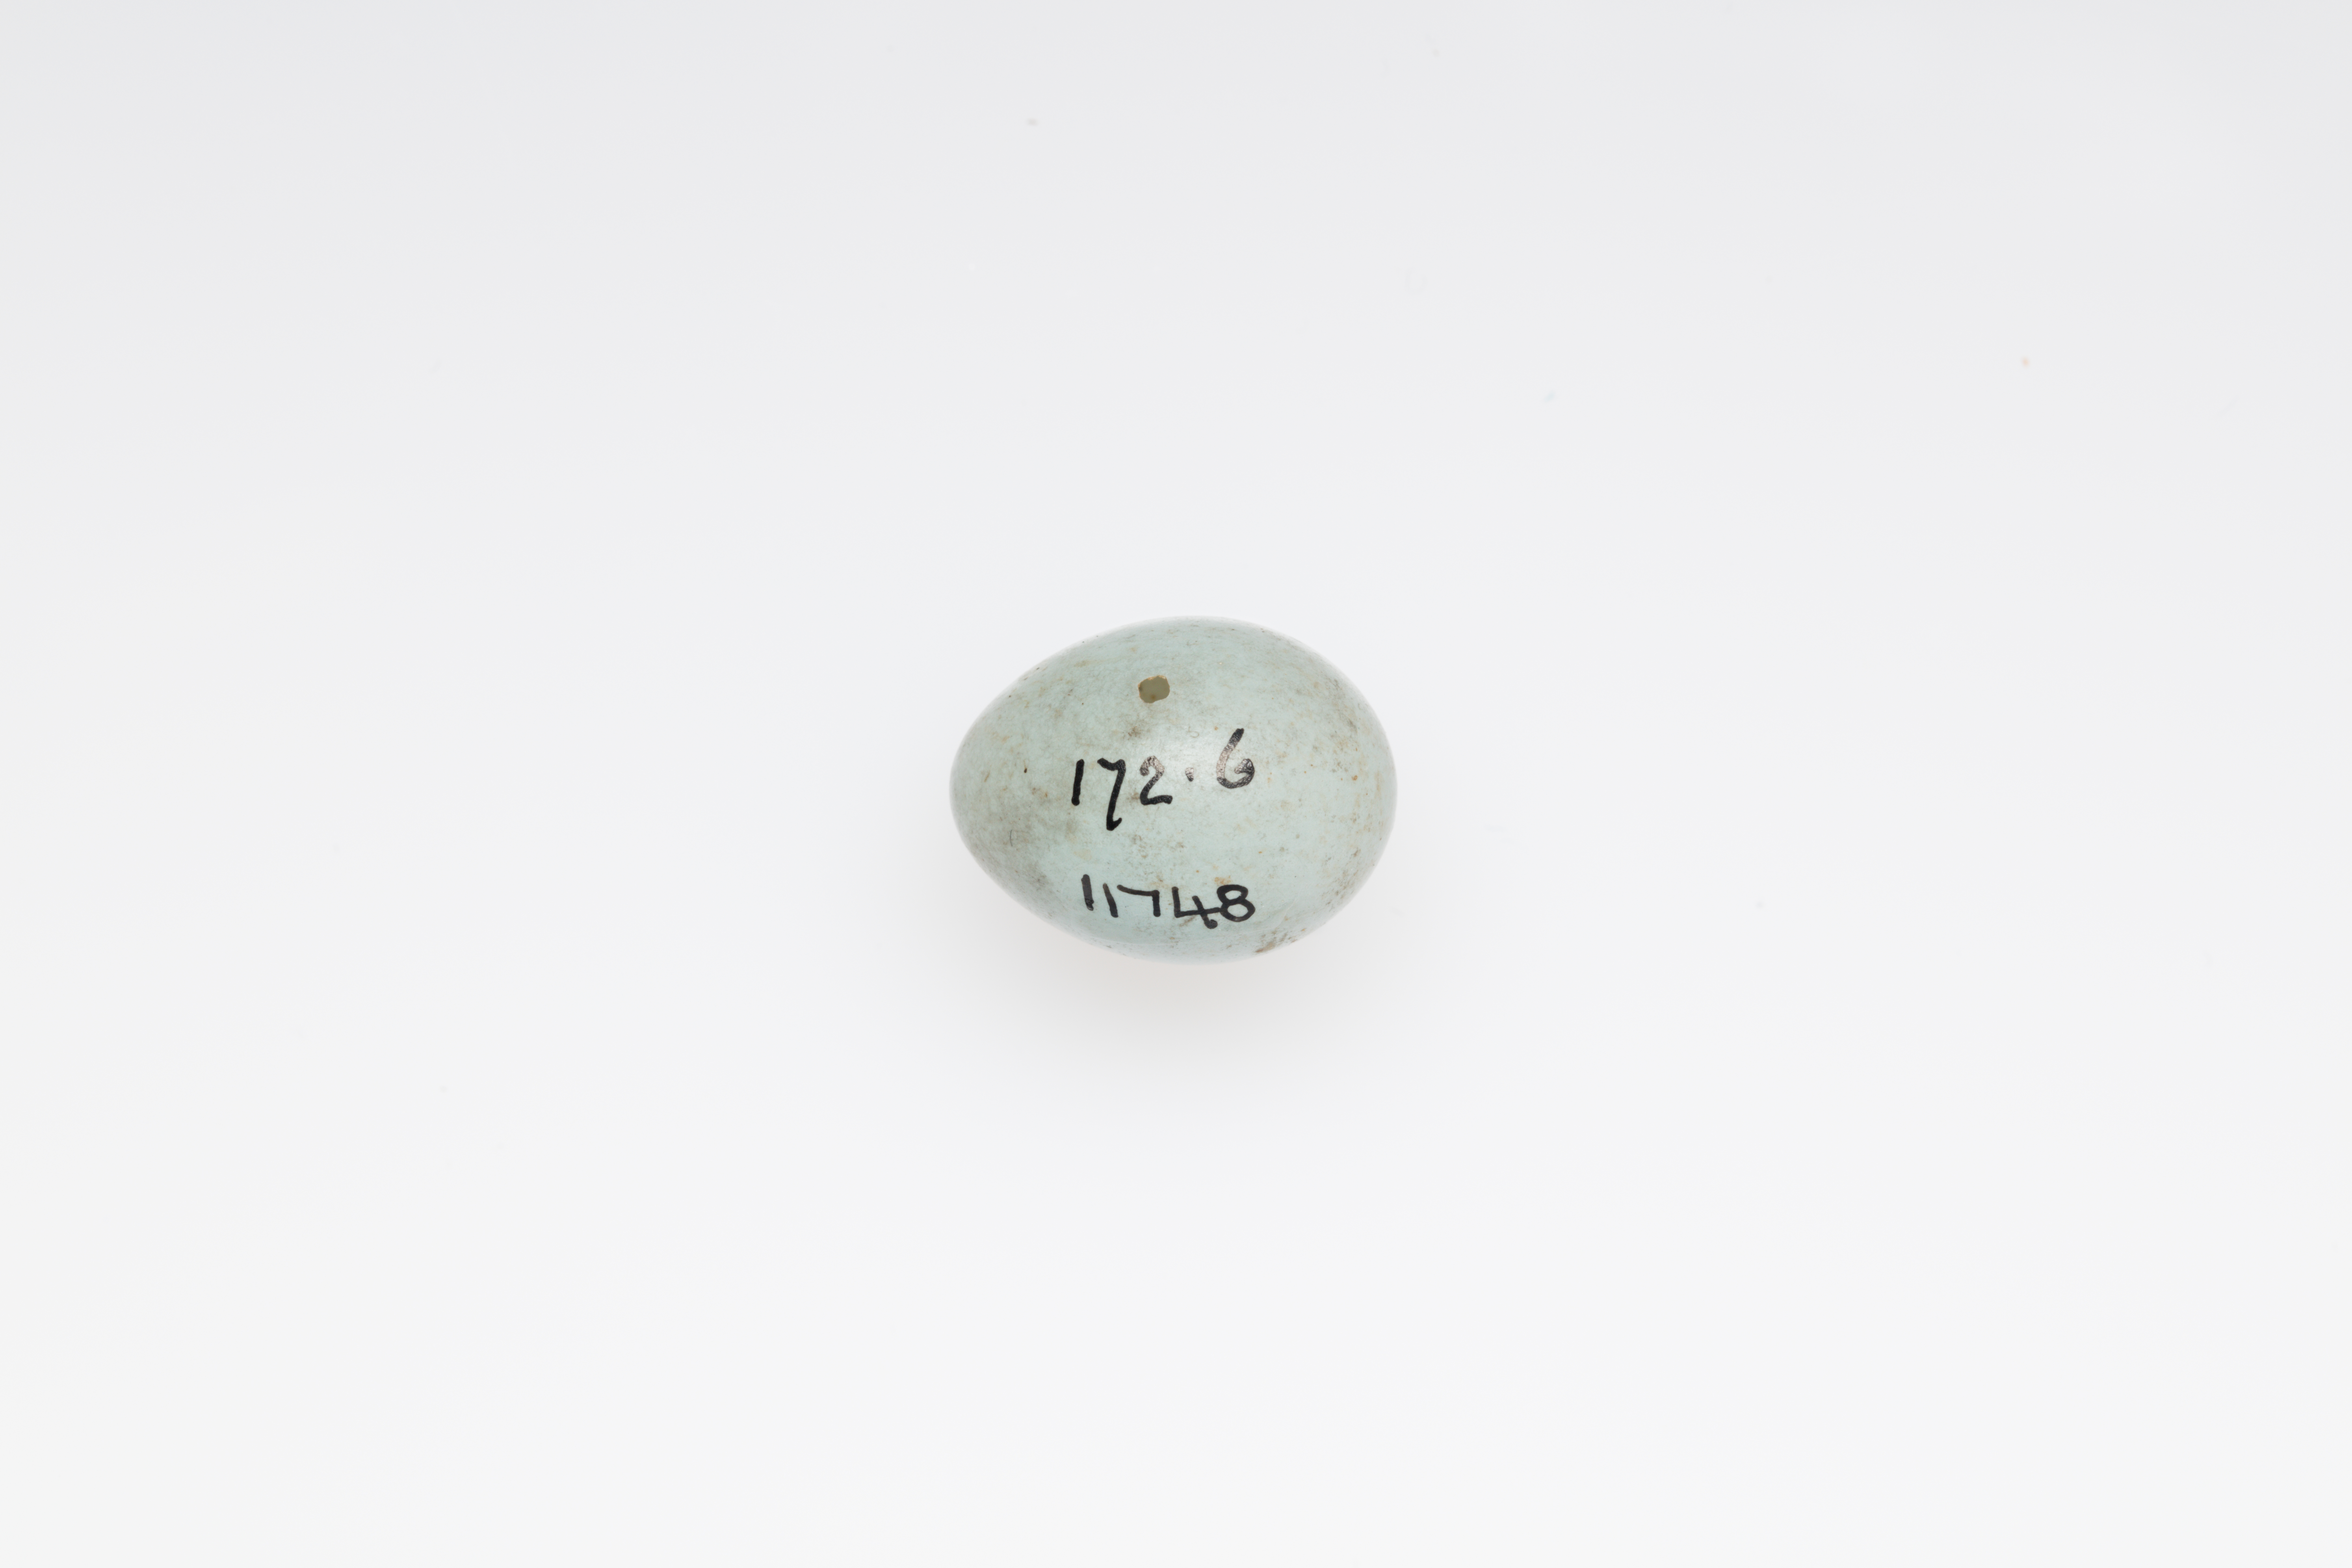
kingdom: Animalia
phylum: Chordata
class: Aves
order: Passeriformes
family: Prunellidae
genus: Prunella
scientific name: Prunella modularis
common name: Dunnock
